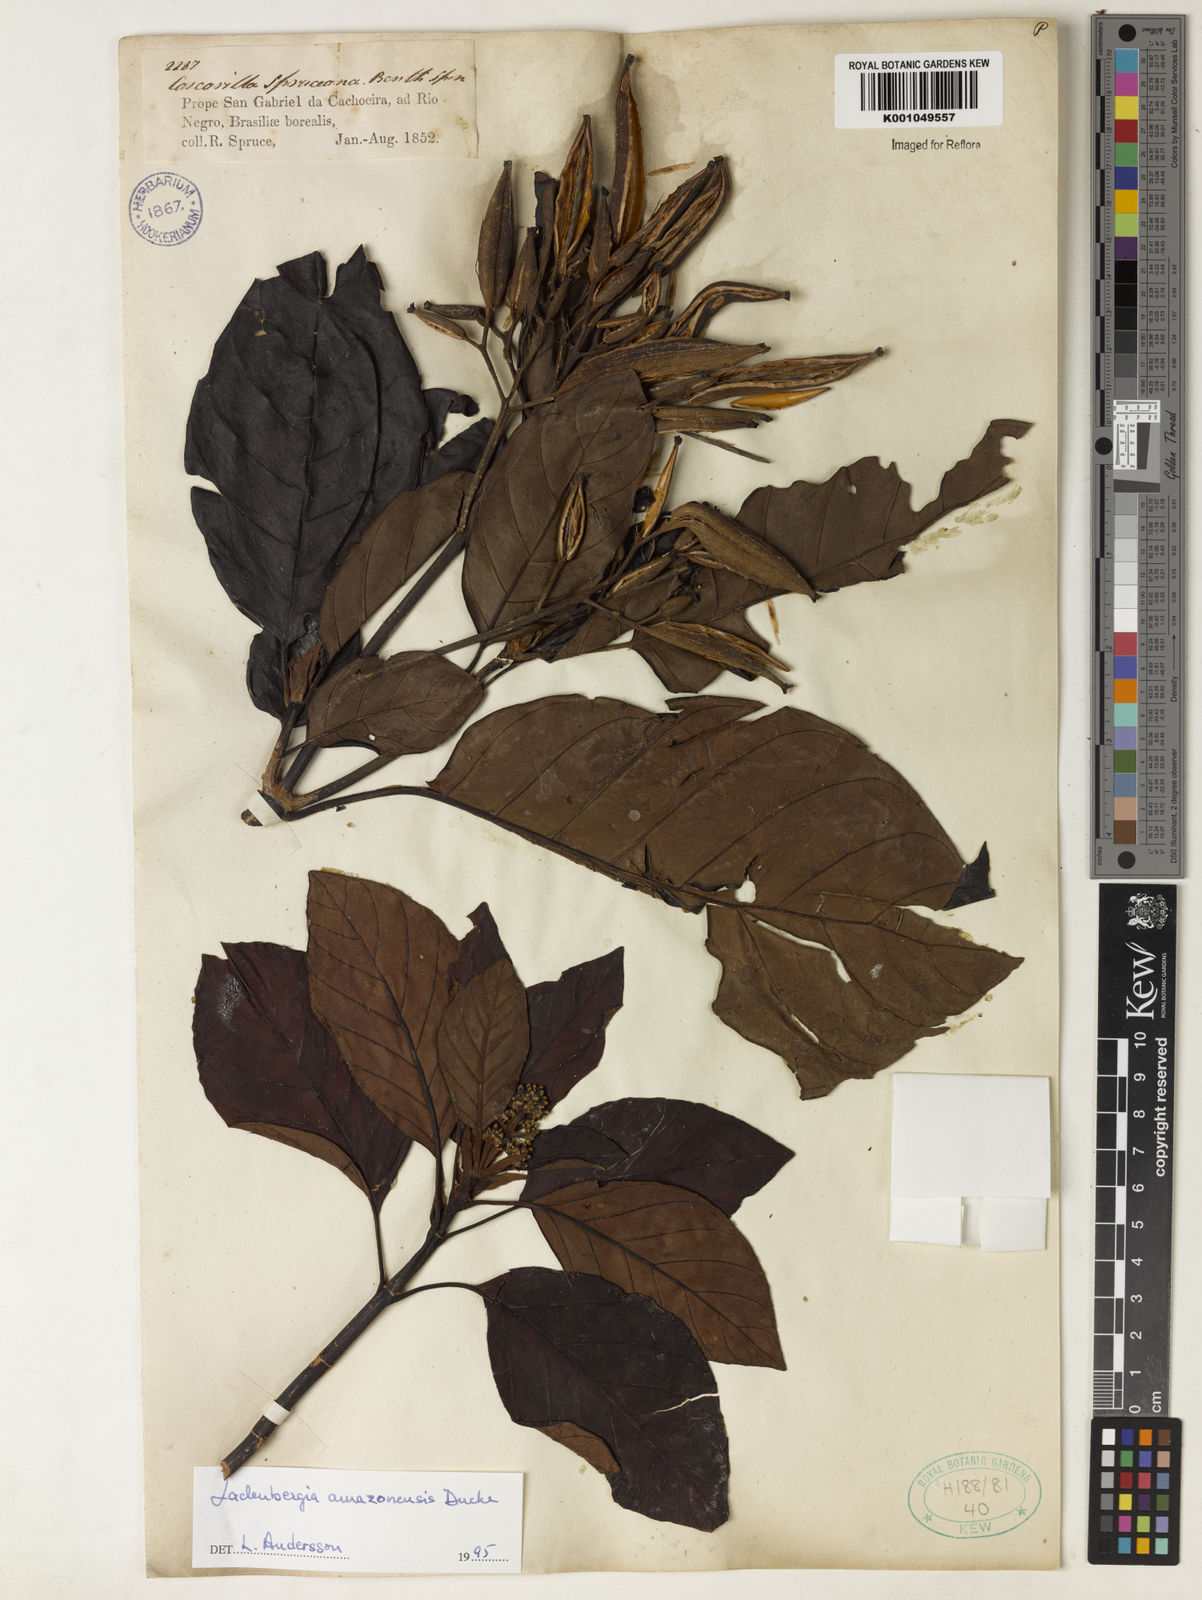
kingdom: Plantae
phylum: Tracheophyta
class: Magnoliopsida
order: Gentianales
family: Rubiaceae
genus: Ladenbergia
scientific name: Ladenbergia amazonensis
